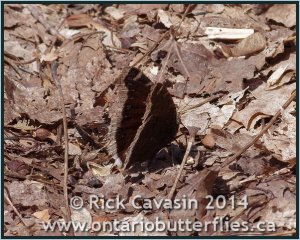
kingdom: Animalia
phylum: Arthropoda
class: Insecta
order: Lepidoptera
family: Nymphalidae
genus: Nymphalis
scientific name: Nymphalis antiopa
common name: Mourning Cloak
